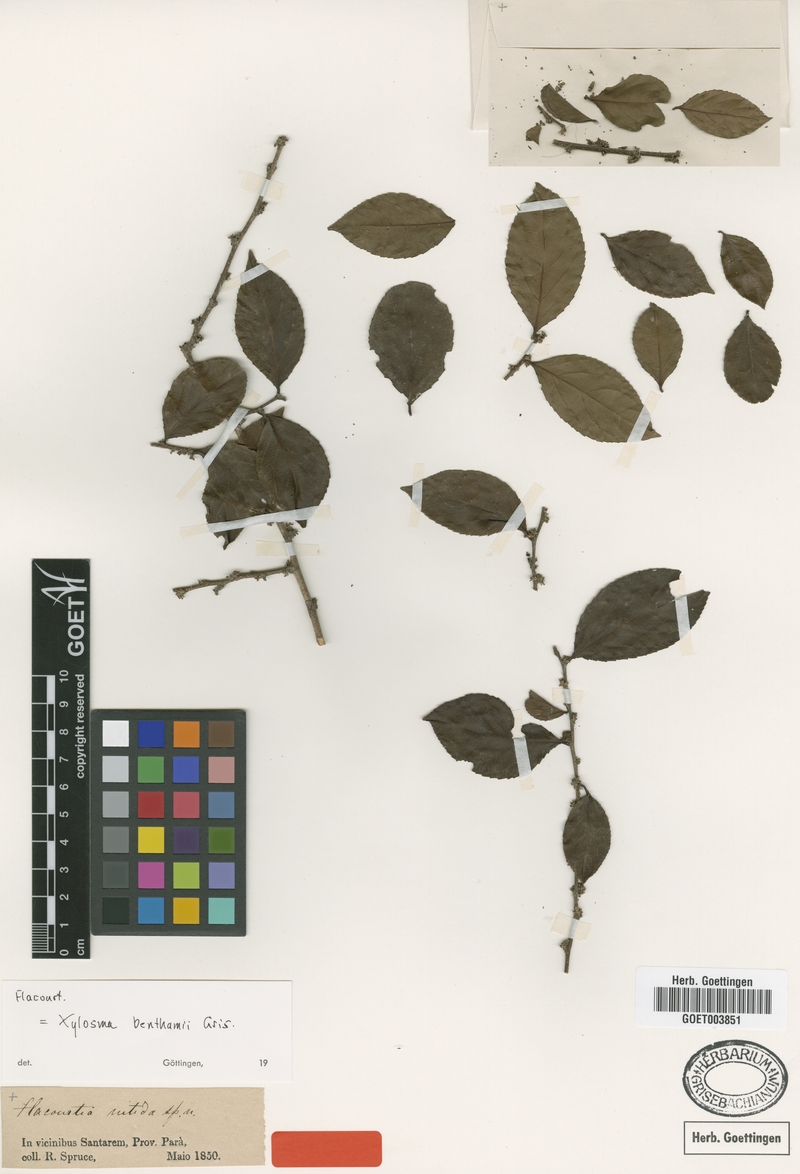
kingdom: Plantae
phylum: Tracheophyta
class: Magnoliopsida
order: Malpighiales
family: Salicaceae
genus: Xylosma
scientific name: Xylosma benthamii
